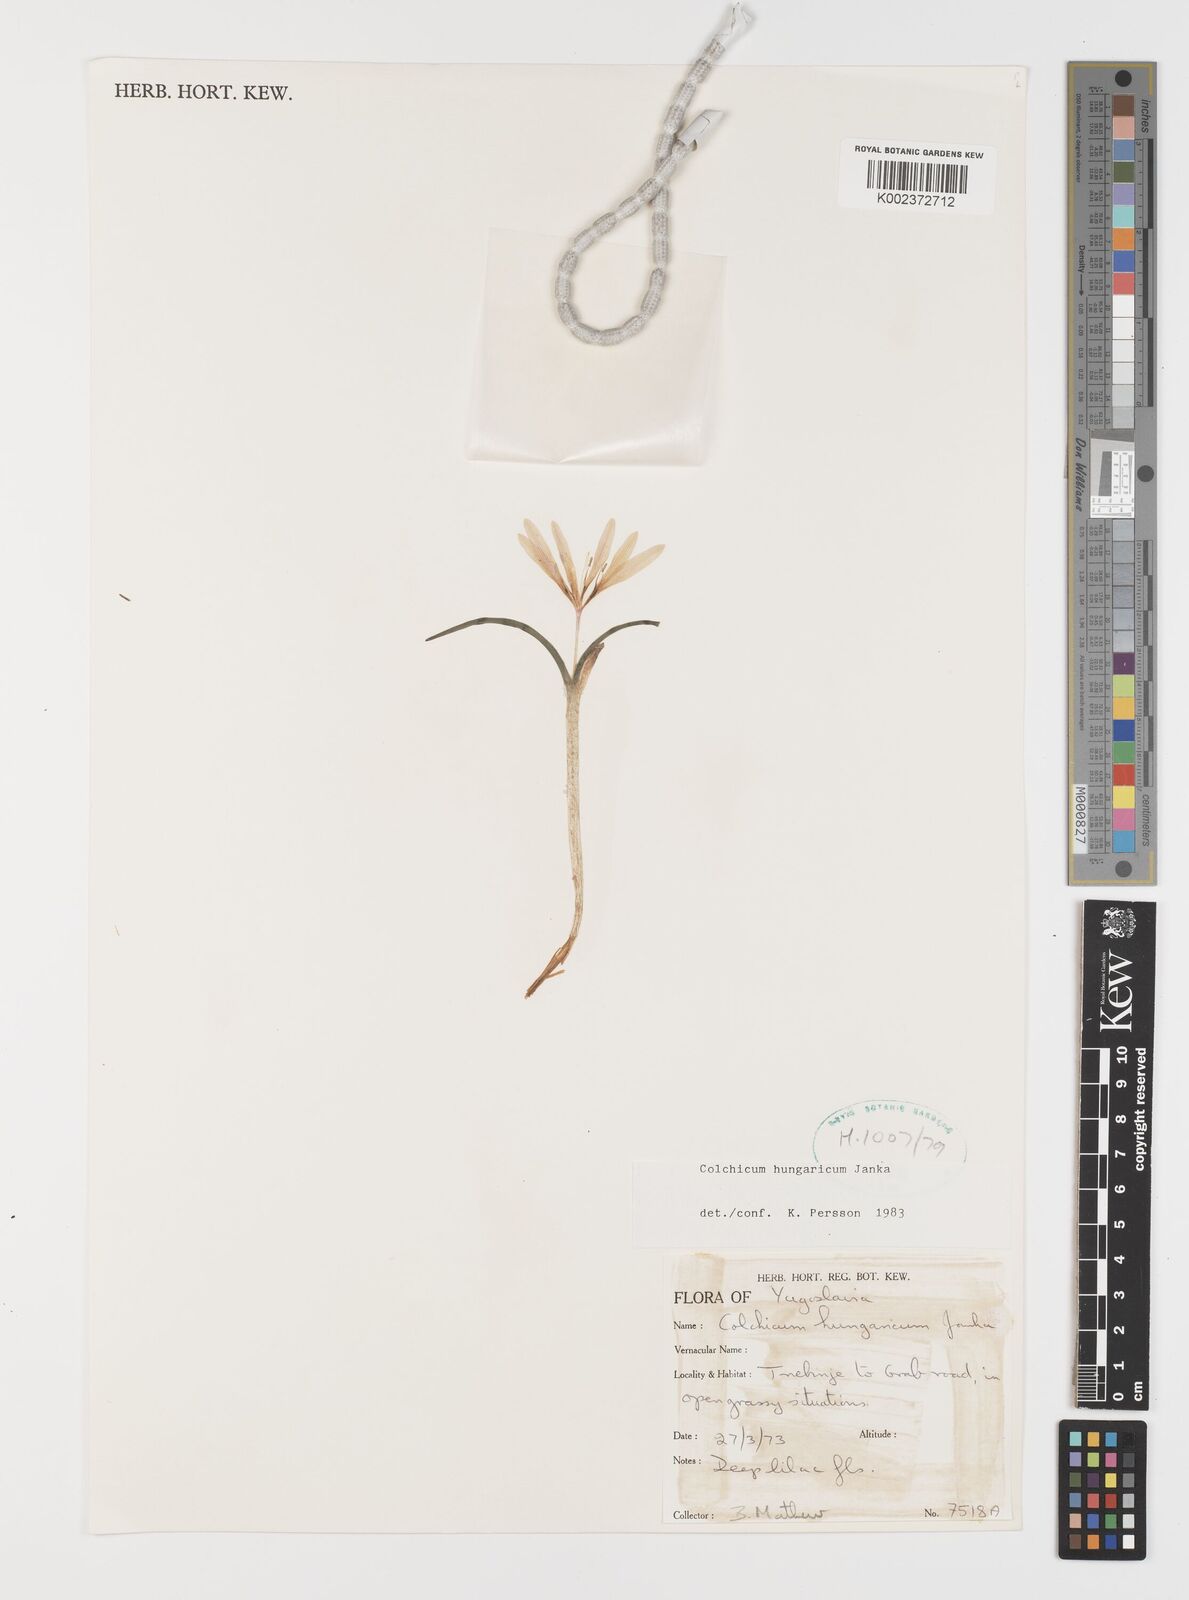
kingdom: Plantae
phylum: Tracheophyta
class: Liliopsida
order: Liliales
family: Colchicaceae
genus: Colchicum
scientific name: Colchicum hungaricum
